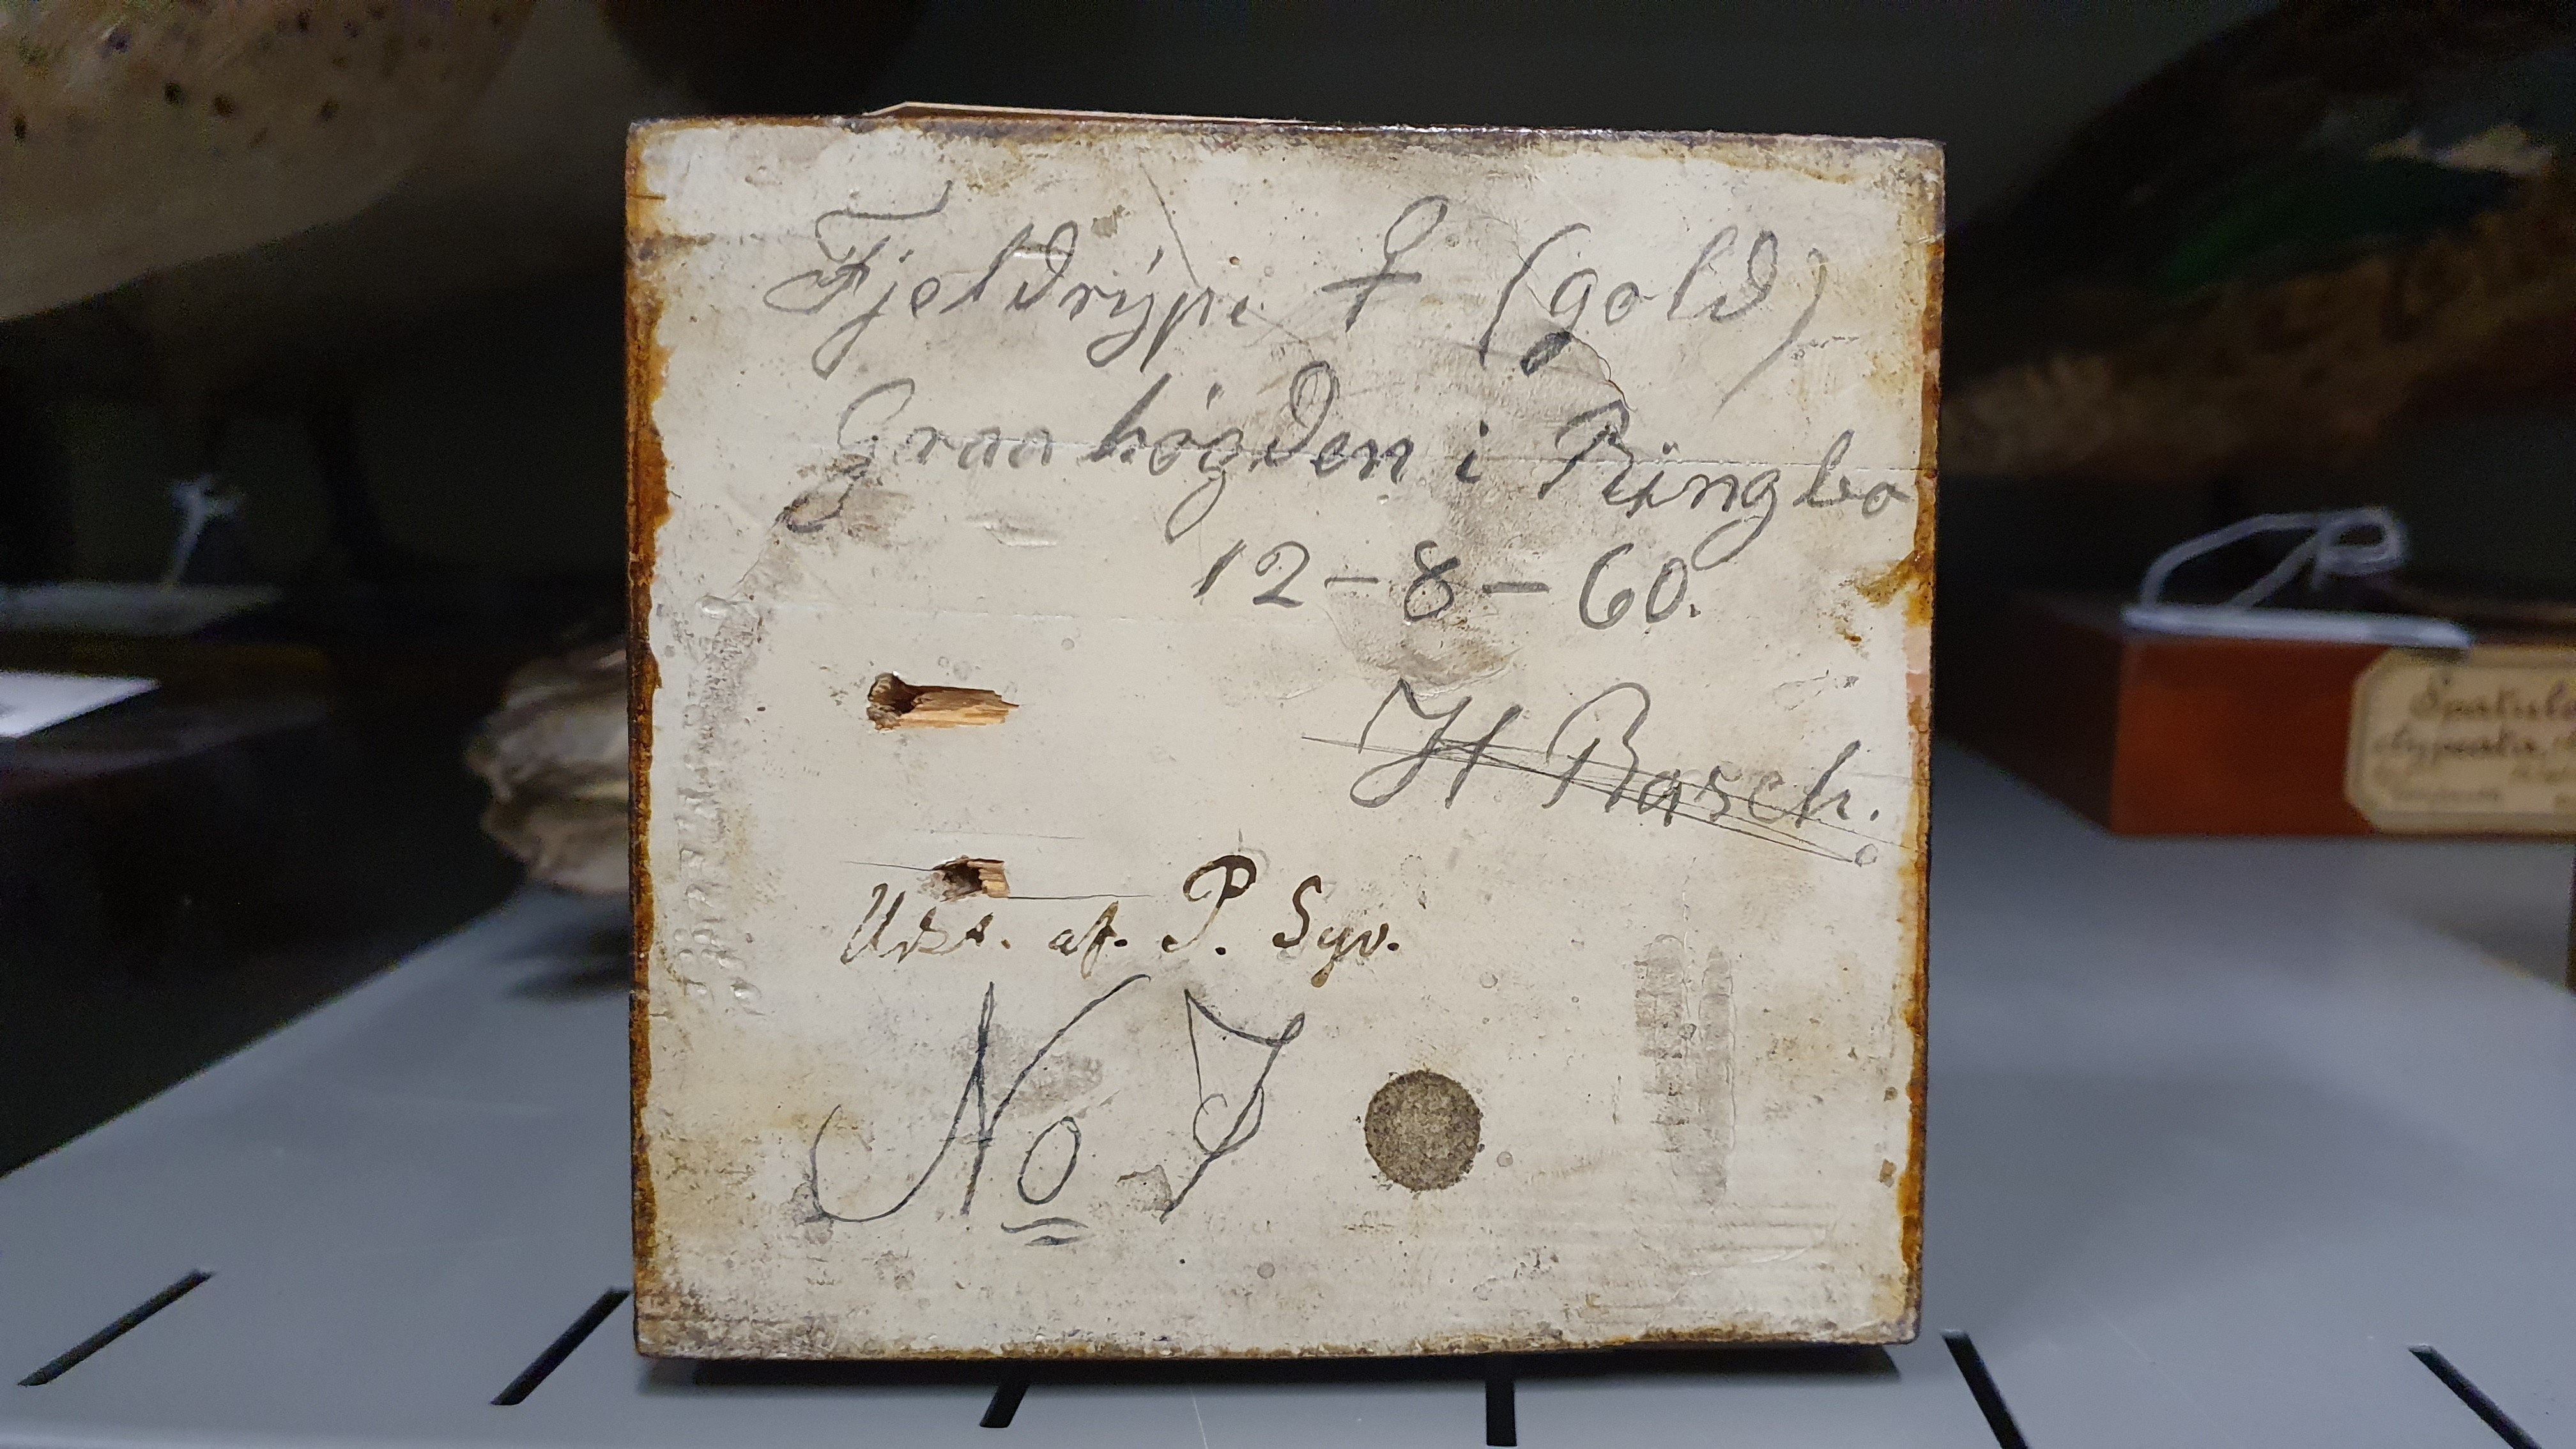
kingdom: Animalia
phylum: Chordata
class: Aves
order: Charadriiformes
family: Scolopacidae
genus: Calidris
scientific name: Calidris pugnax
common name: Ruff
